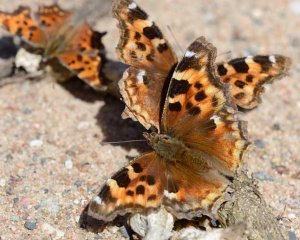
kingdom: Animalia
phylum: Arthropoda
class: Insecta
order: Lepidoptera
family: Nymphalidae
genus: Polygonia
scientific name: Polygonia vaualbum
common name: Compton Tortoiseshell
